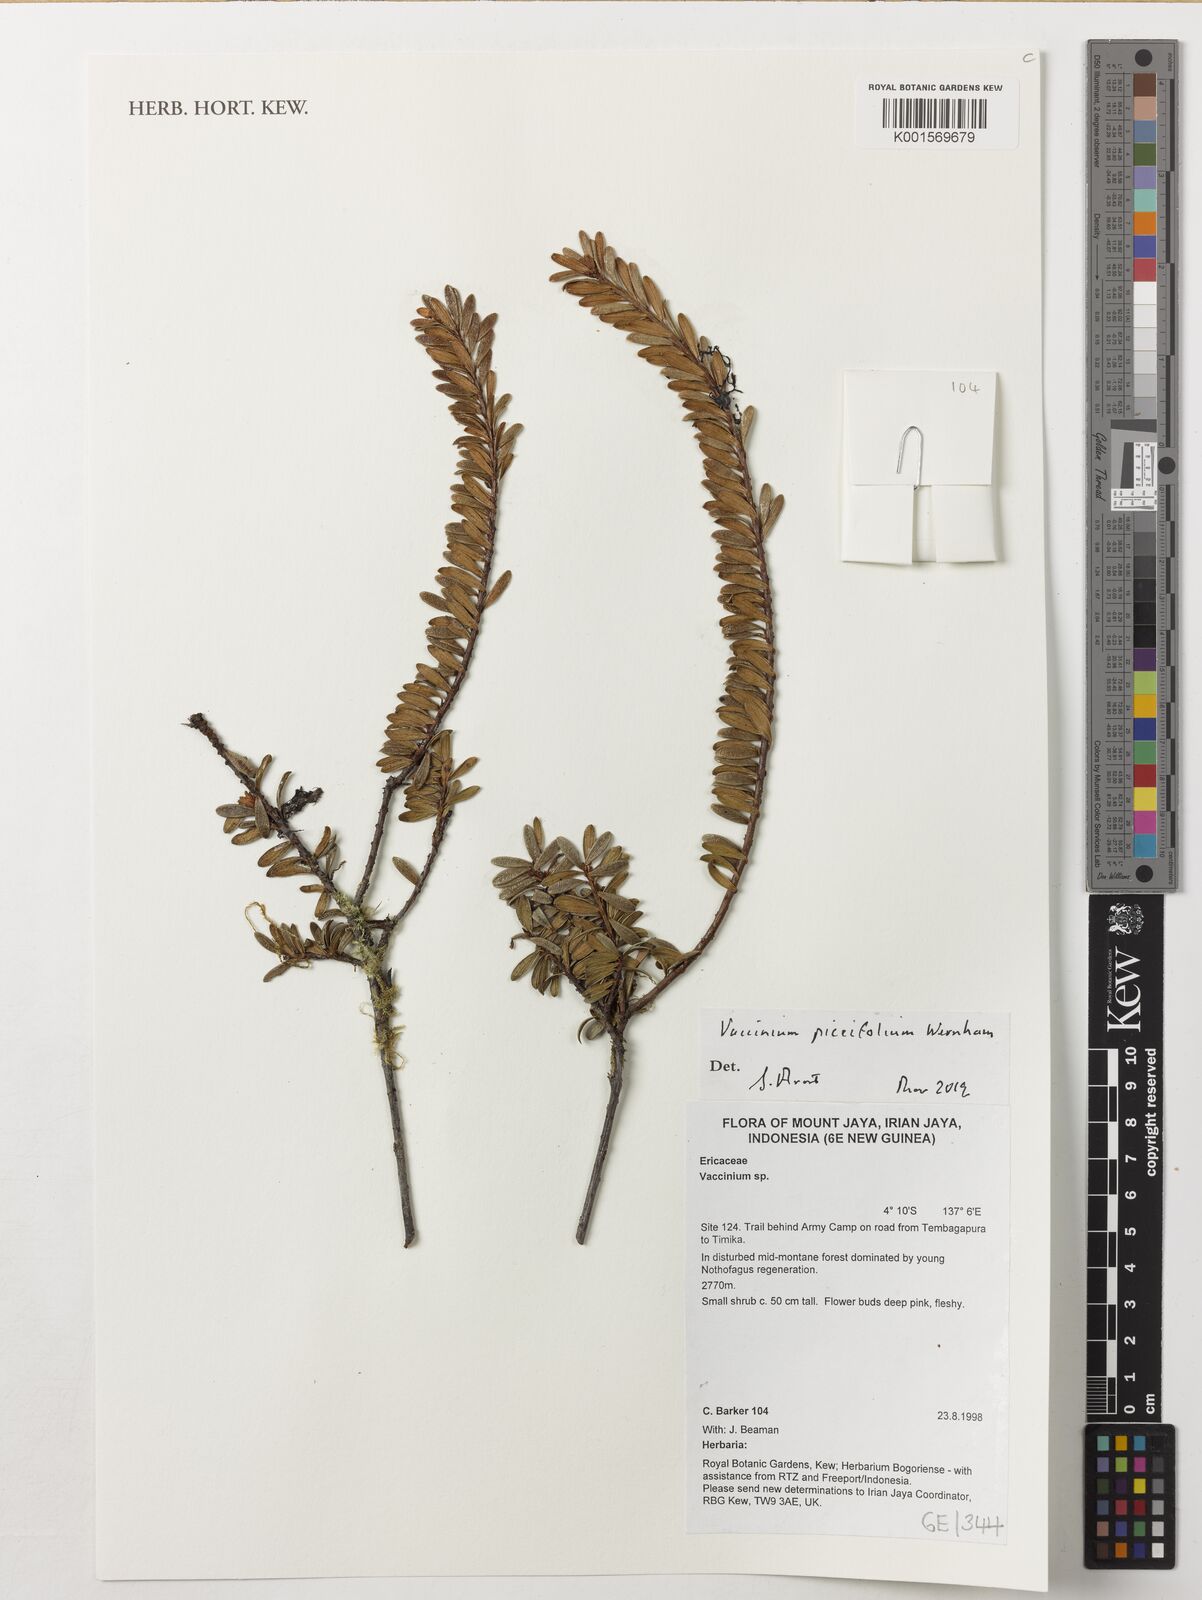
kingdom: Plantae
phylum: Tracheophyta
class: Magnoliopsida
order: Ericales
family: Ericaceae
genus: Vaccinium
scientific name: Vaccinium piceifolium
